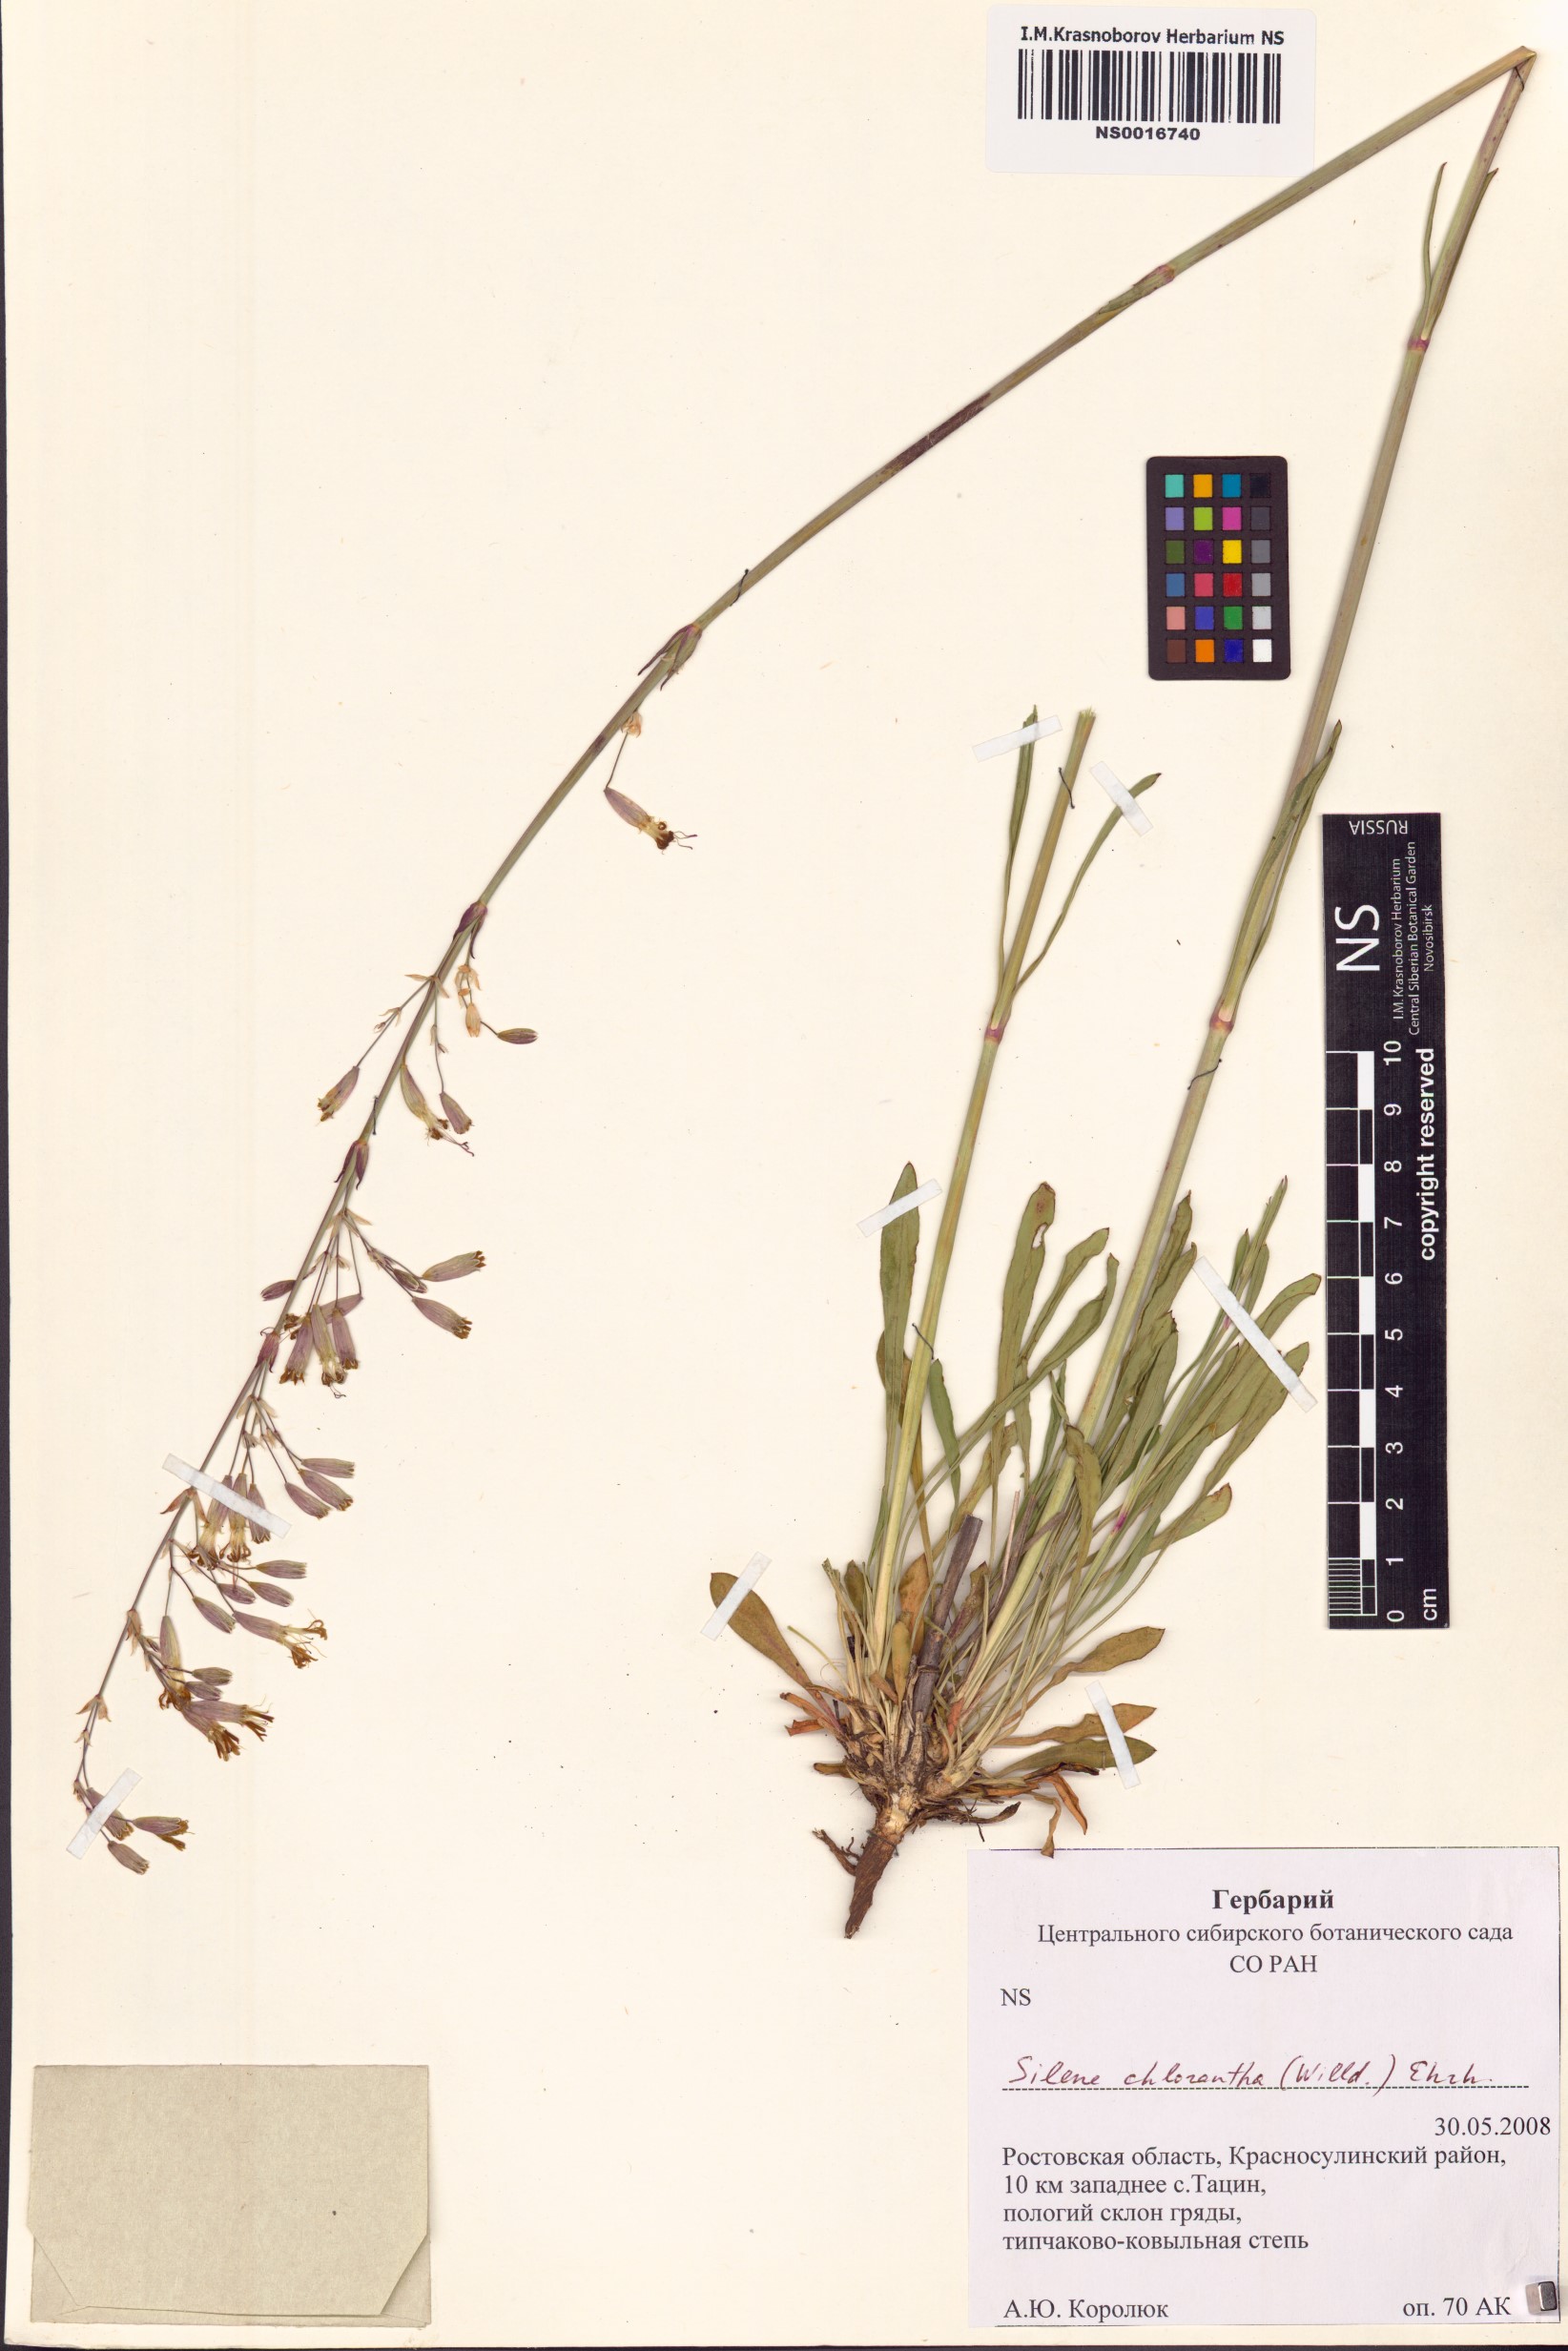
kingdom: Plantae
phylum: Tracheophyta
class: Magnoliopsida
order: Caryophyllales
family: Caryophyllaceae
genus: Silene
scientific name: Silene chlorantha
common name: Yellowgreen catchfly
